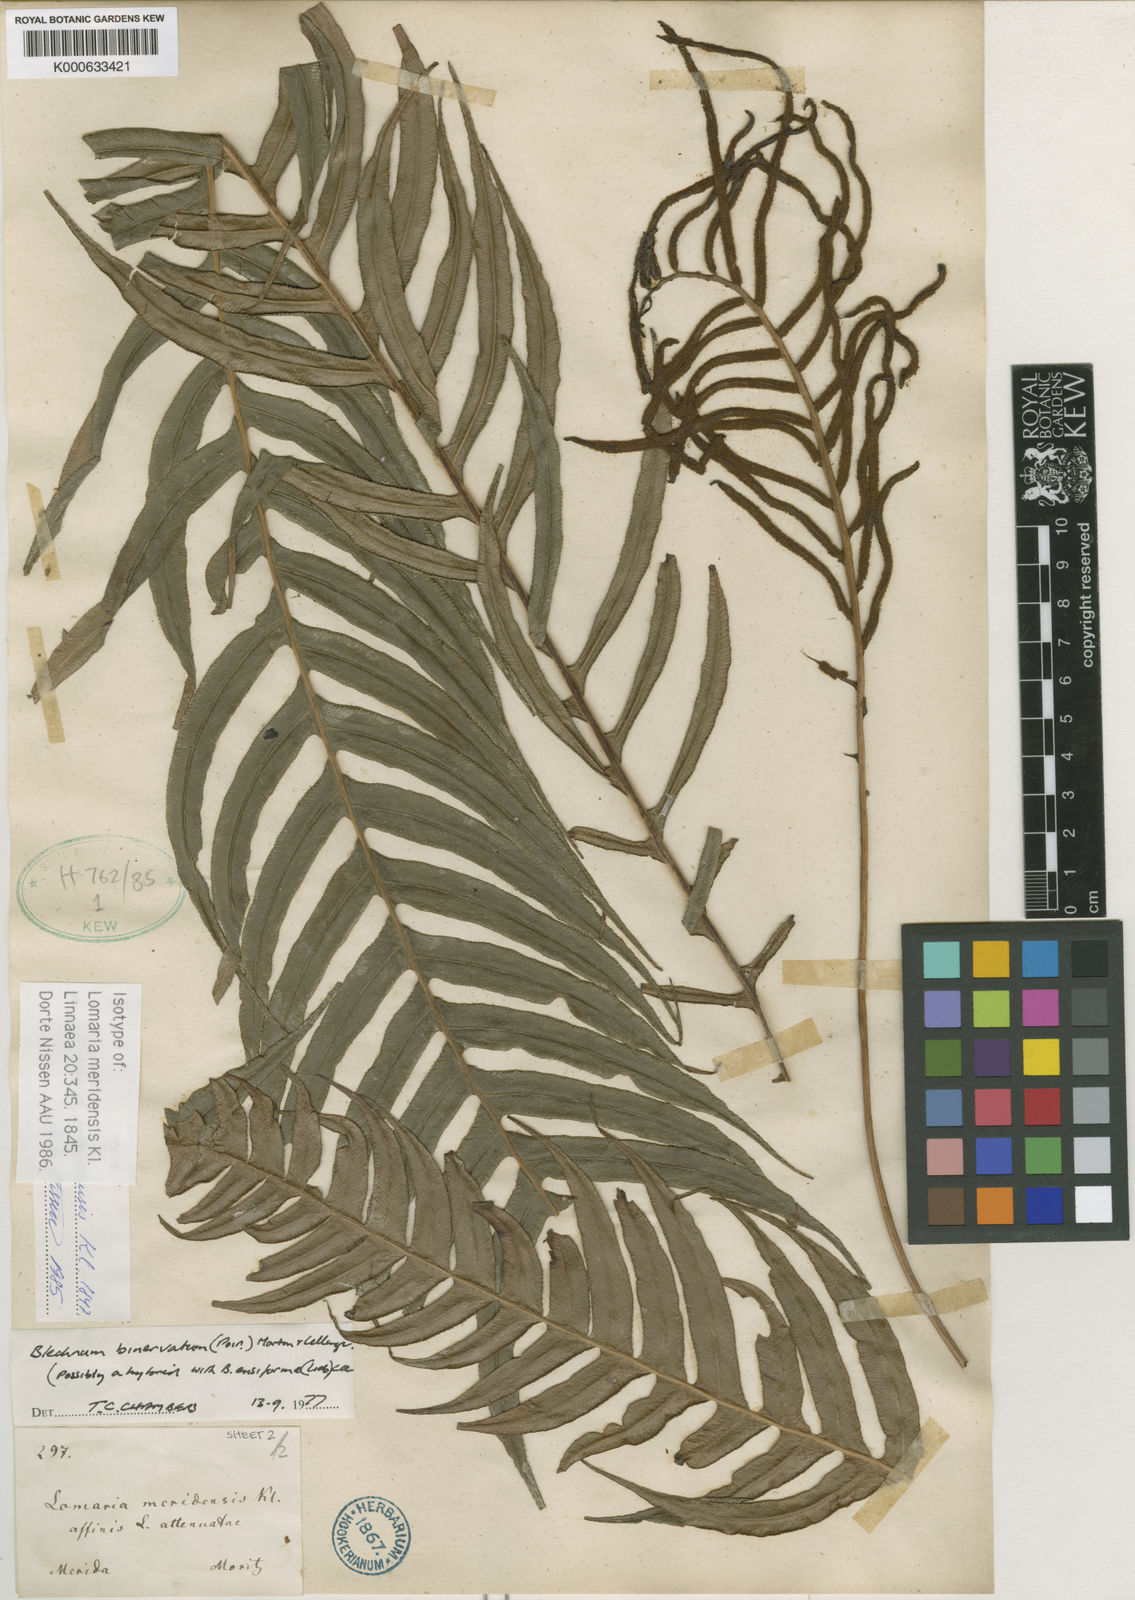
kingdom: Plantae
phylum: Tracheophyta
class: Polypodiopsida
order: Polypodiales
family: Blechnaceae
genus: Lomaridium
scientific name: Lomaridium binervatum
